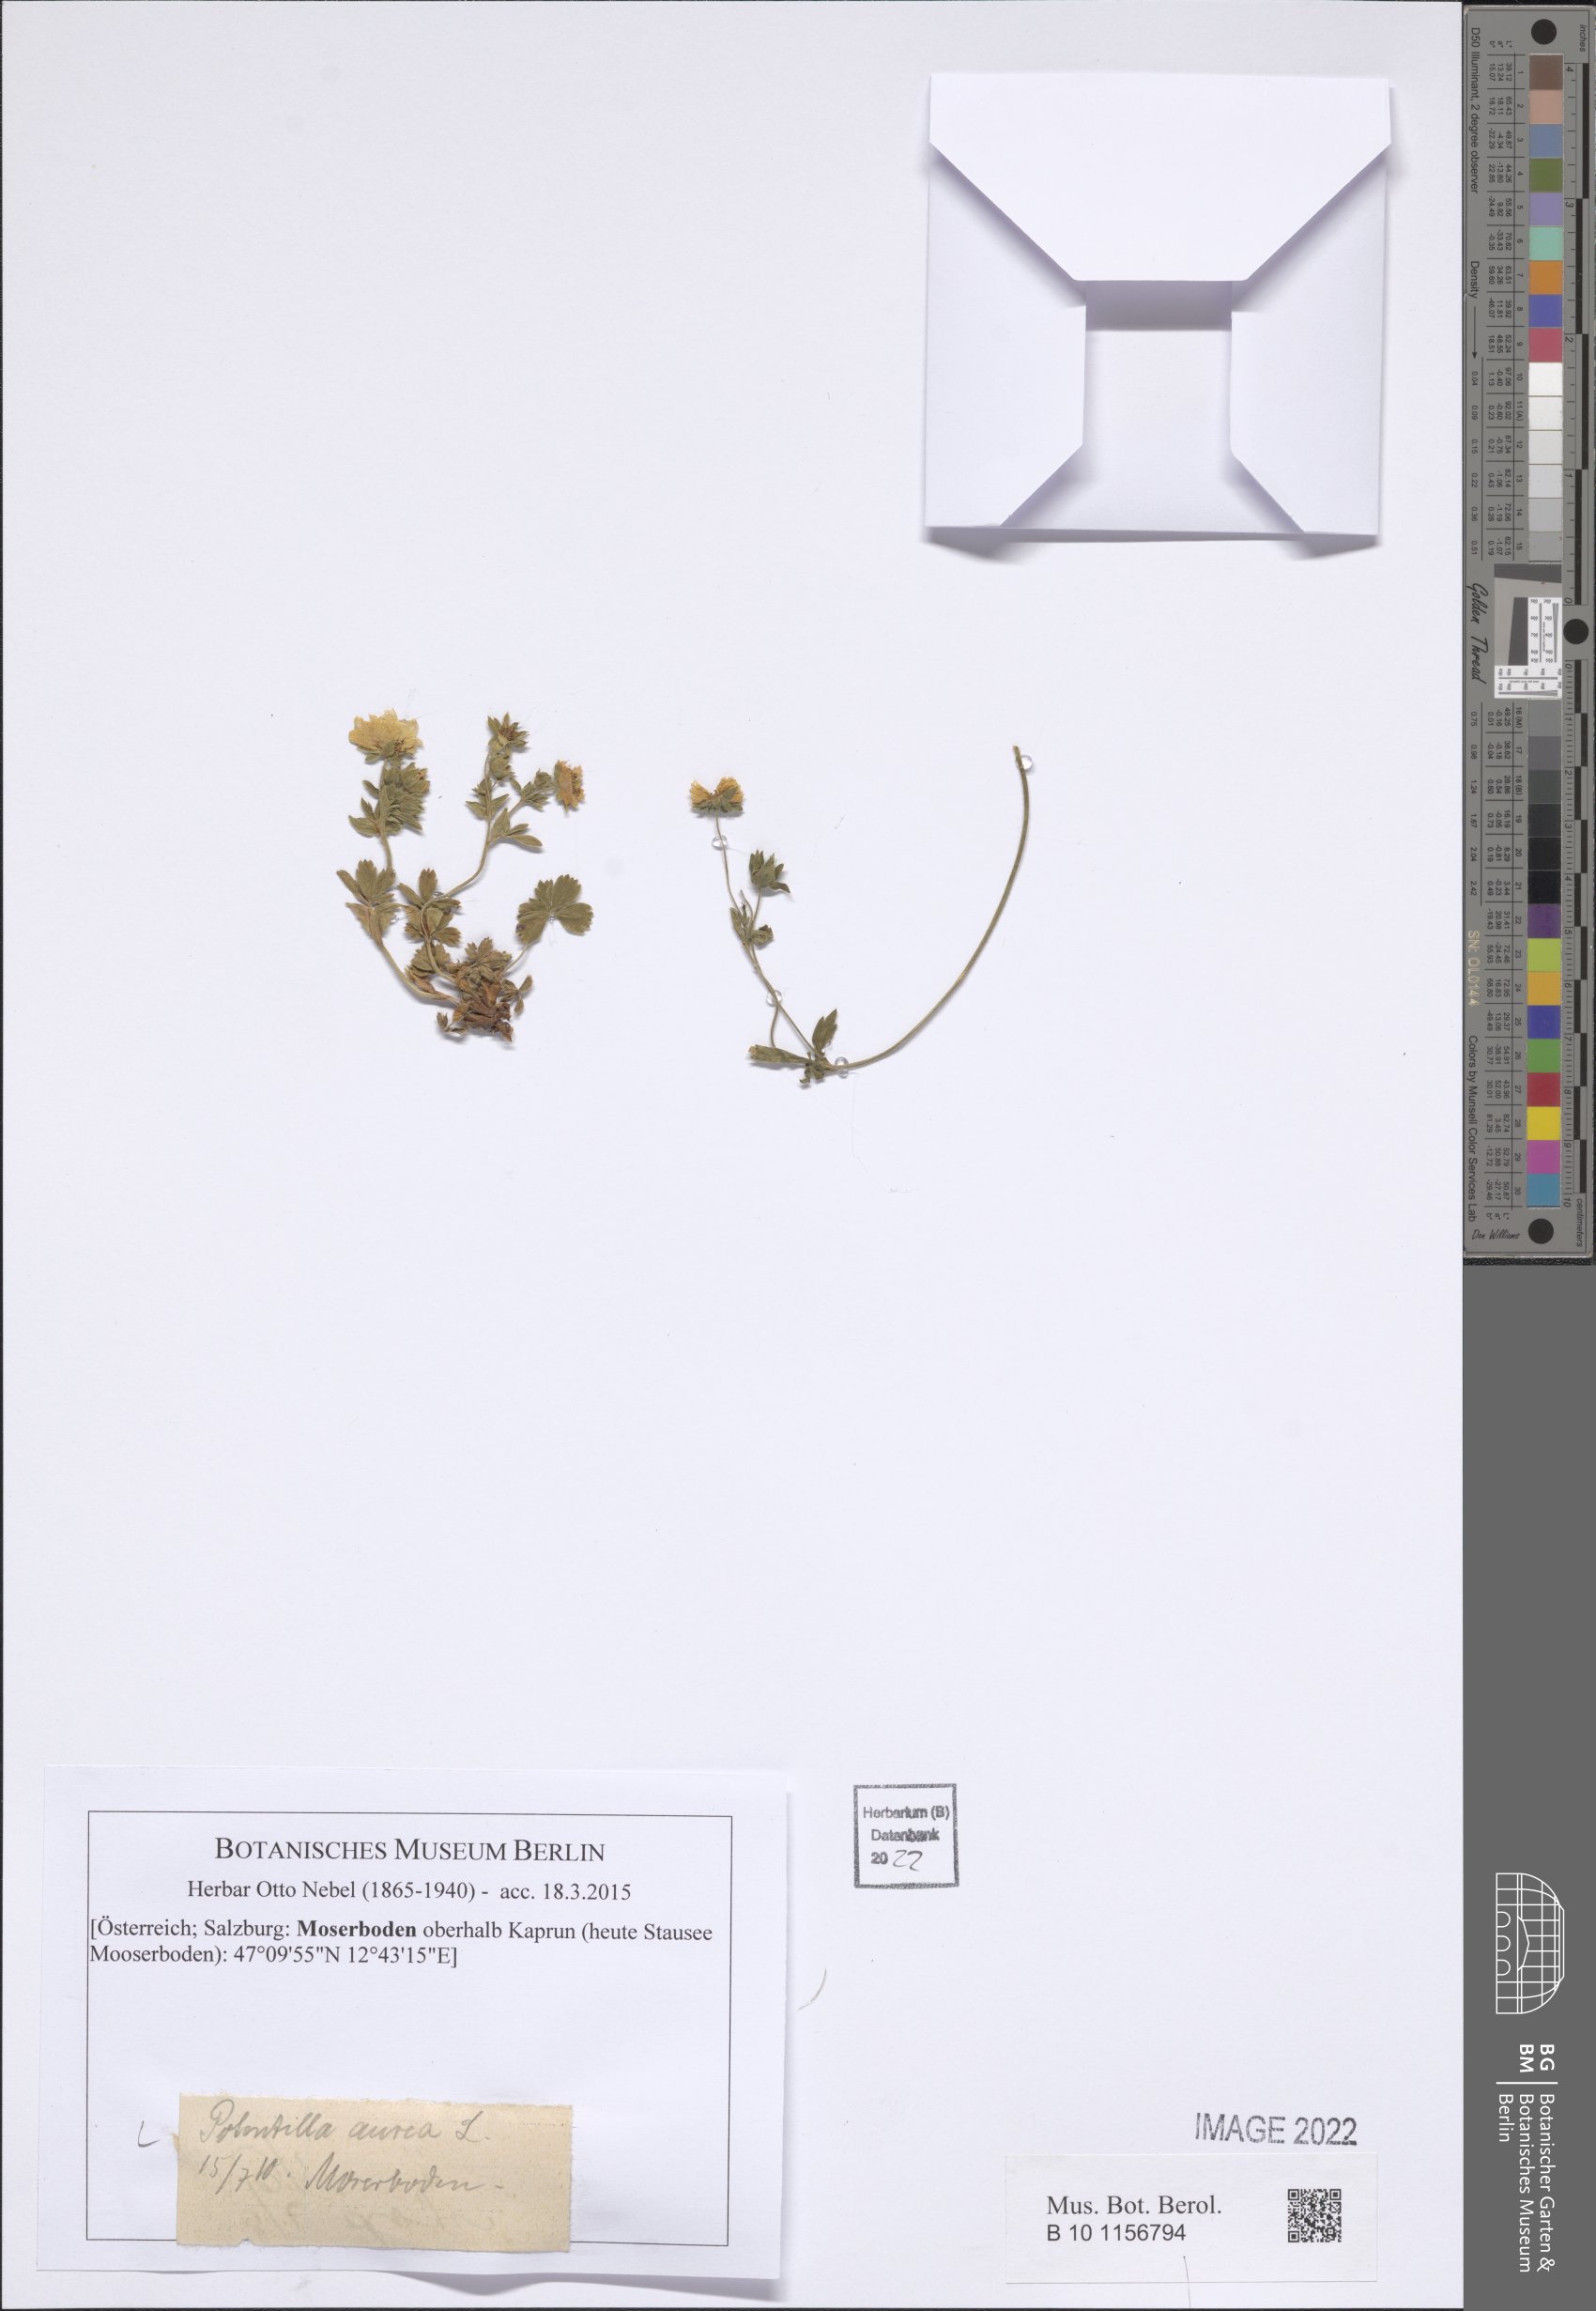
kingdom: Plantae
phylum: Tracheophyta
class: Magnoliopsida
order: Rosales
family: Rosaceae
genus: Potentilla
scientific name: Potentilla aurea
